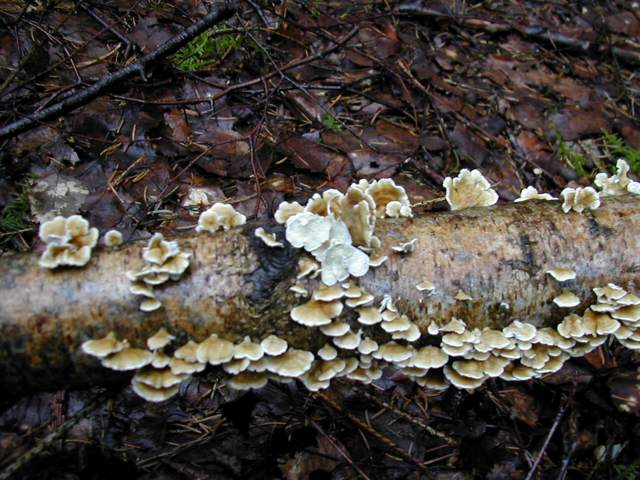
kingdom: Fungi
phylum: Basidiomycota
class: Agaricomycetes
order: Amylocorticiales
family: Amylocorticiaceae
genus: Plicaturopsis
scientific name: Plicaturopsis crispa
